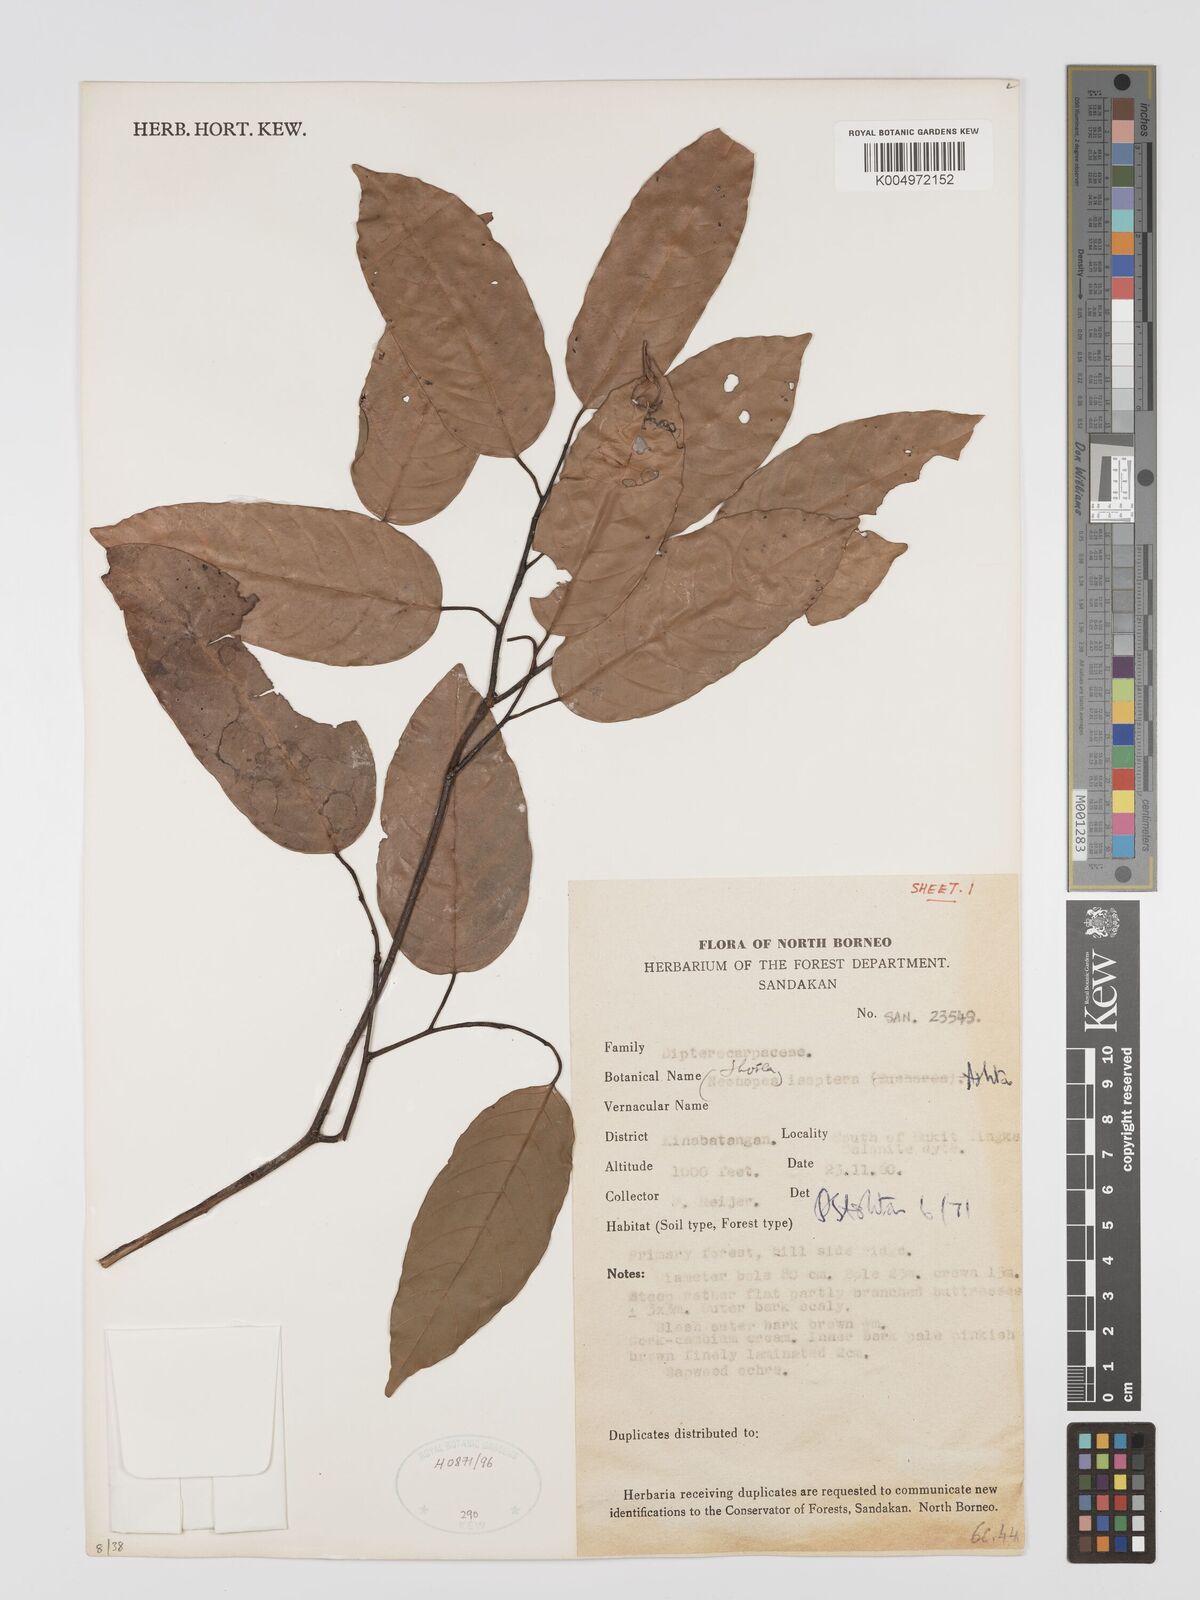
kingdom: Plantae
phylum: Tracheophyta
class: Magnoliopsida
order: Malvales
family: Dipterocarpaceae
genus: Neohopea
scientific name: Neohopea isoptera
